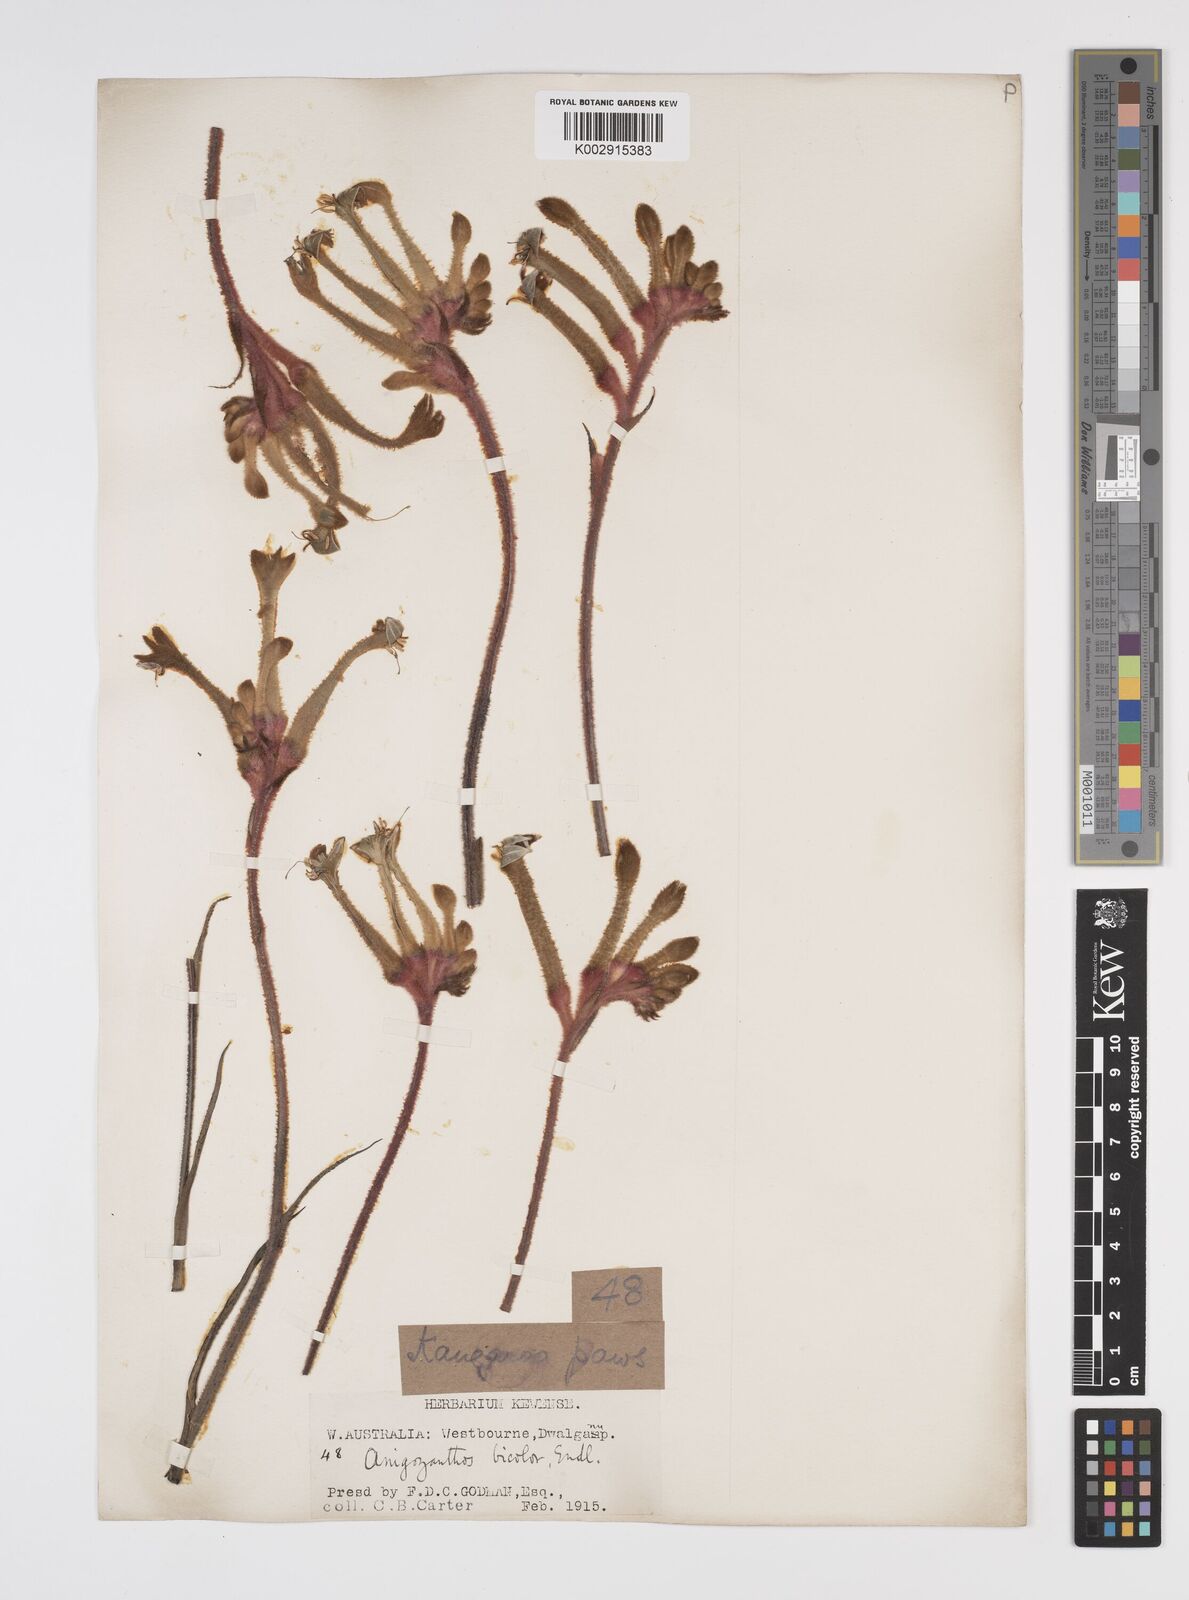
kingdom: Plantae
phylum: Tracheophyta
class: Liliopsida
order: Commelinales
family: Haemodoraceae
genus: Anigozanthos
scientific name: Anigozanthos bicolor
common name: Little kangaroo-paw
